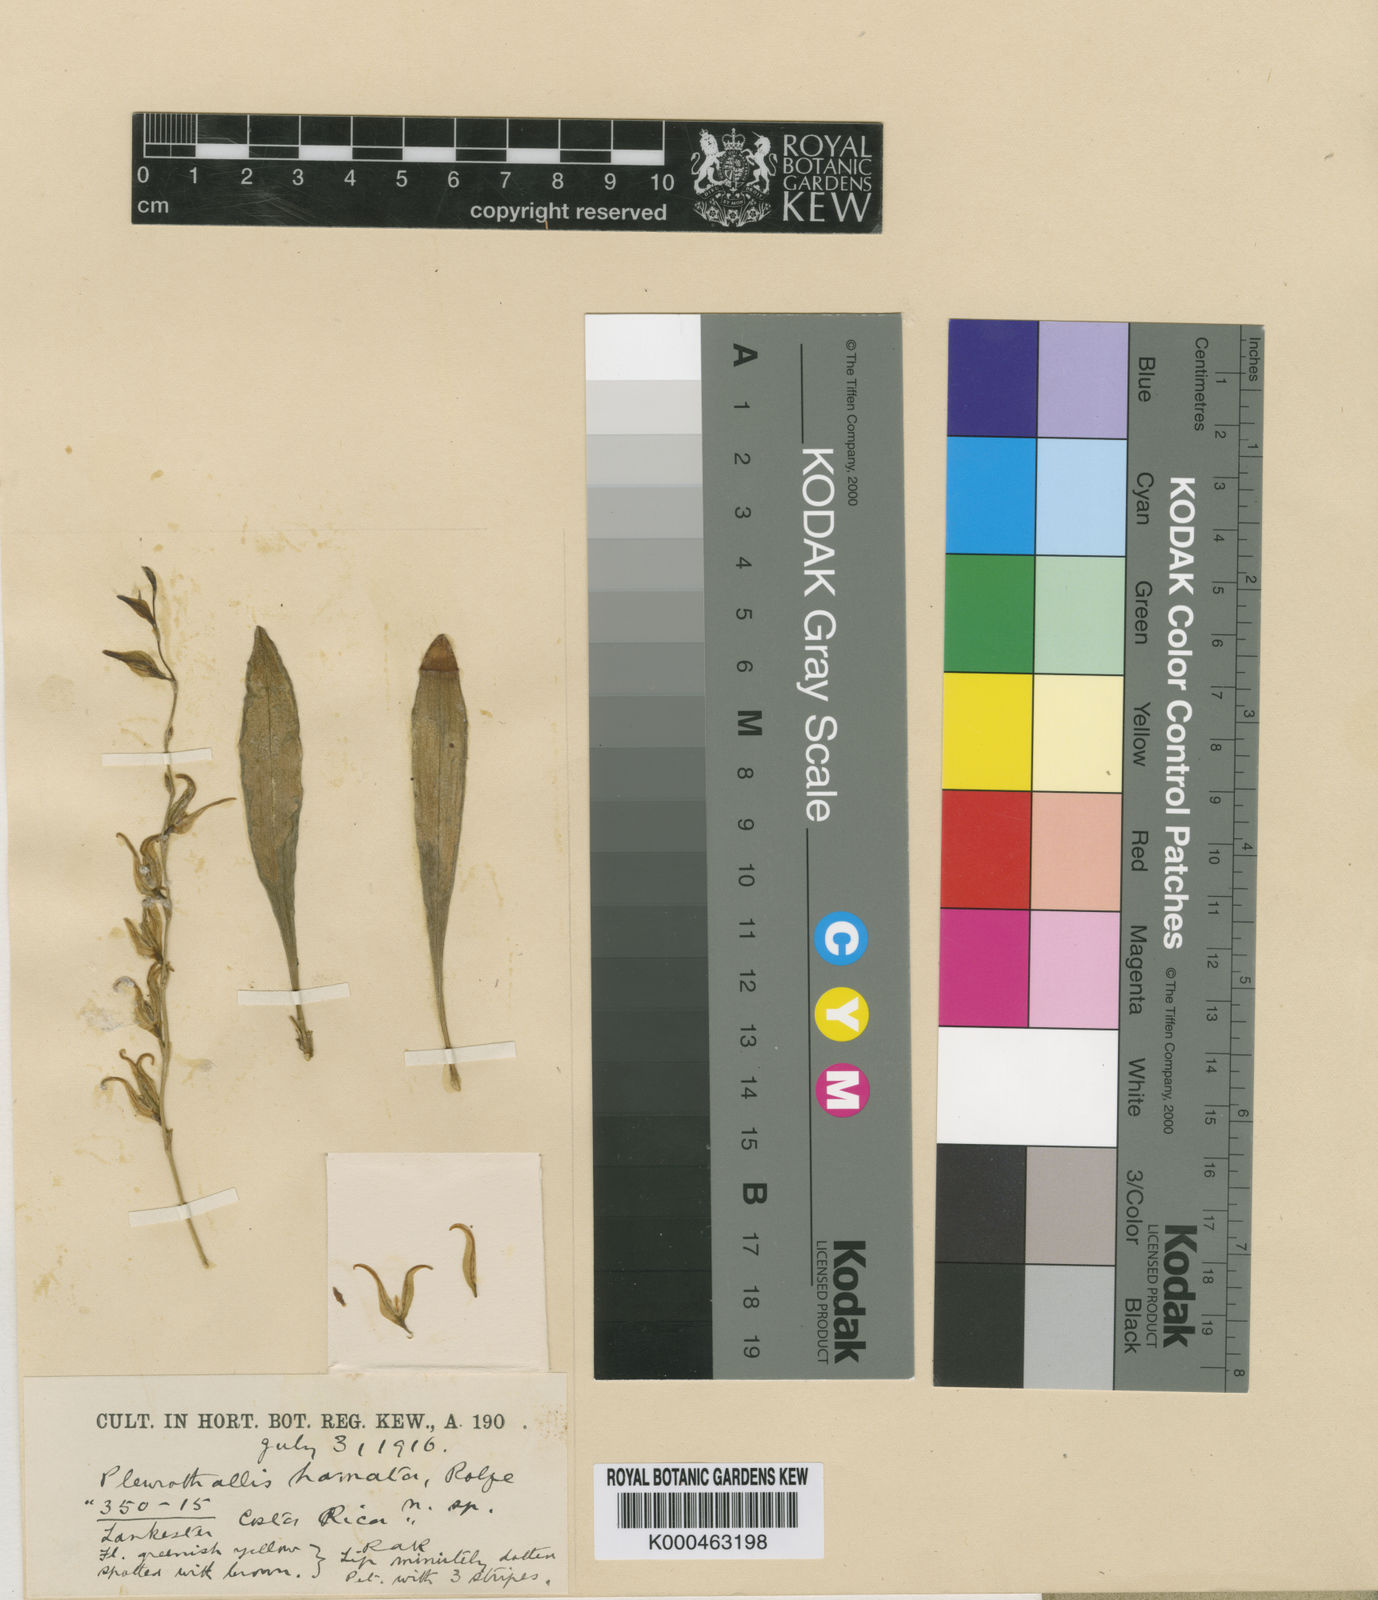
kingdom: Plantae
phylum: Tracheophyta
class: Liliopsida
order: Asparagales
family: Orchidaceae
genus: Pabstiella
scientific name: Pabstiella aperta
